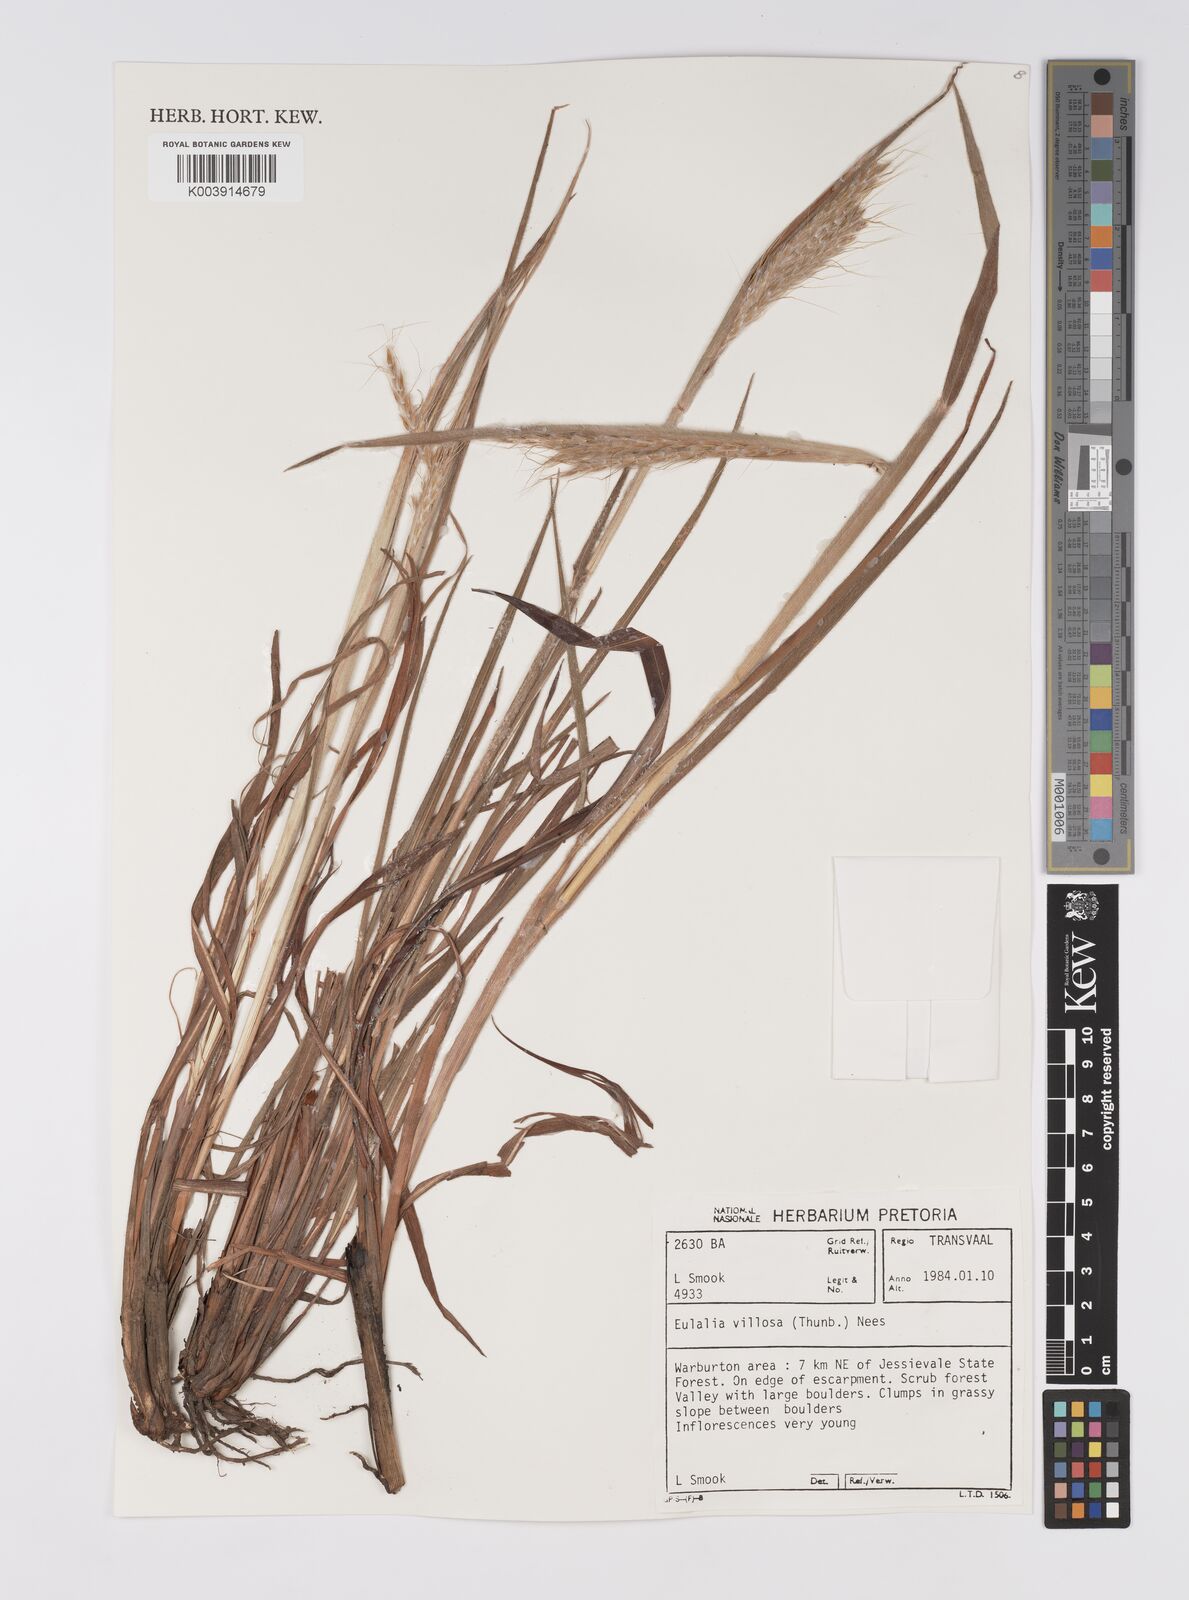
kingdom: Plantae
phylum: Tracheophyta
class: Liliopsida
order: Poales
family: Poaceae
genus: Eulalia
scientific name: Eulalia villosa
